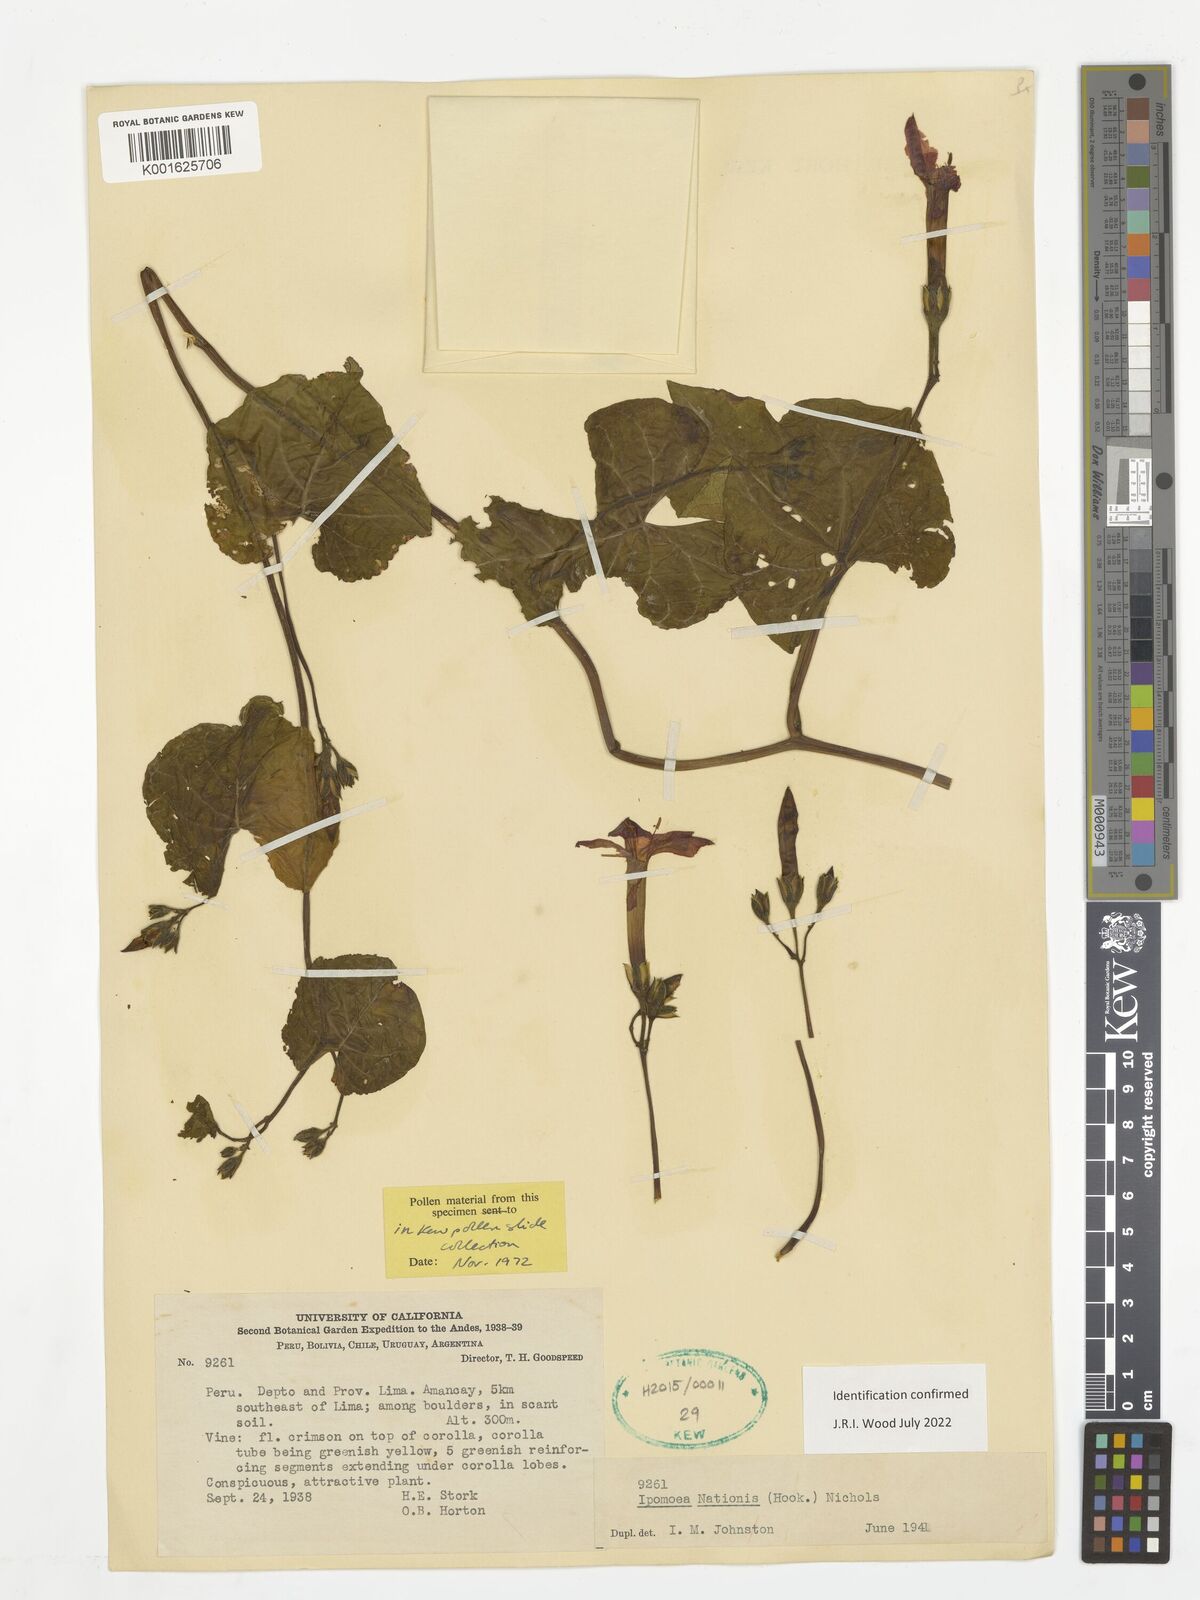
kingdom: Plantae
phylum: Tracheophyta
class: Magnoliopsida
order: Solanales
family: Convolvulaceae
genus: Ipomoea
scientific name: Ipomoea nationis
